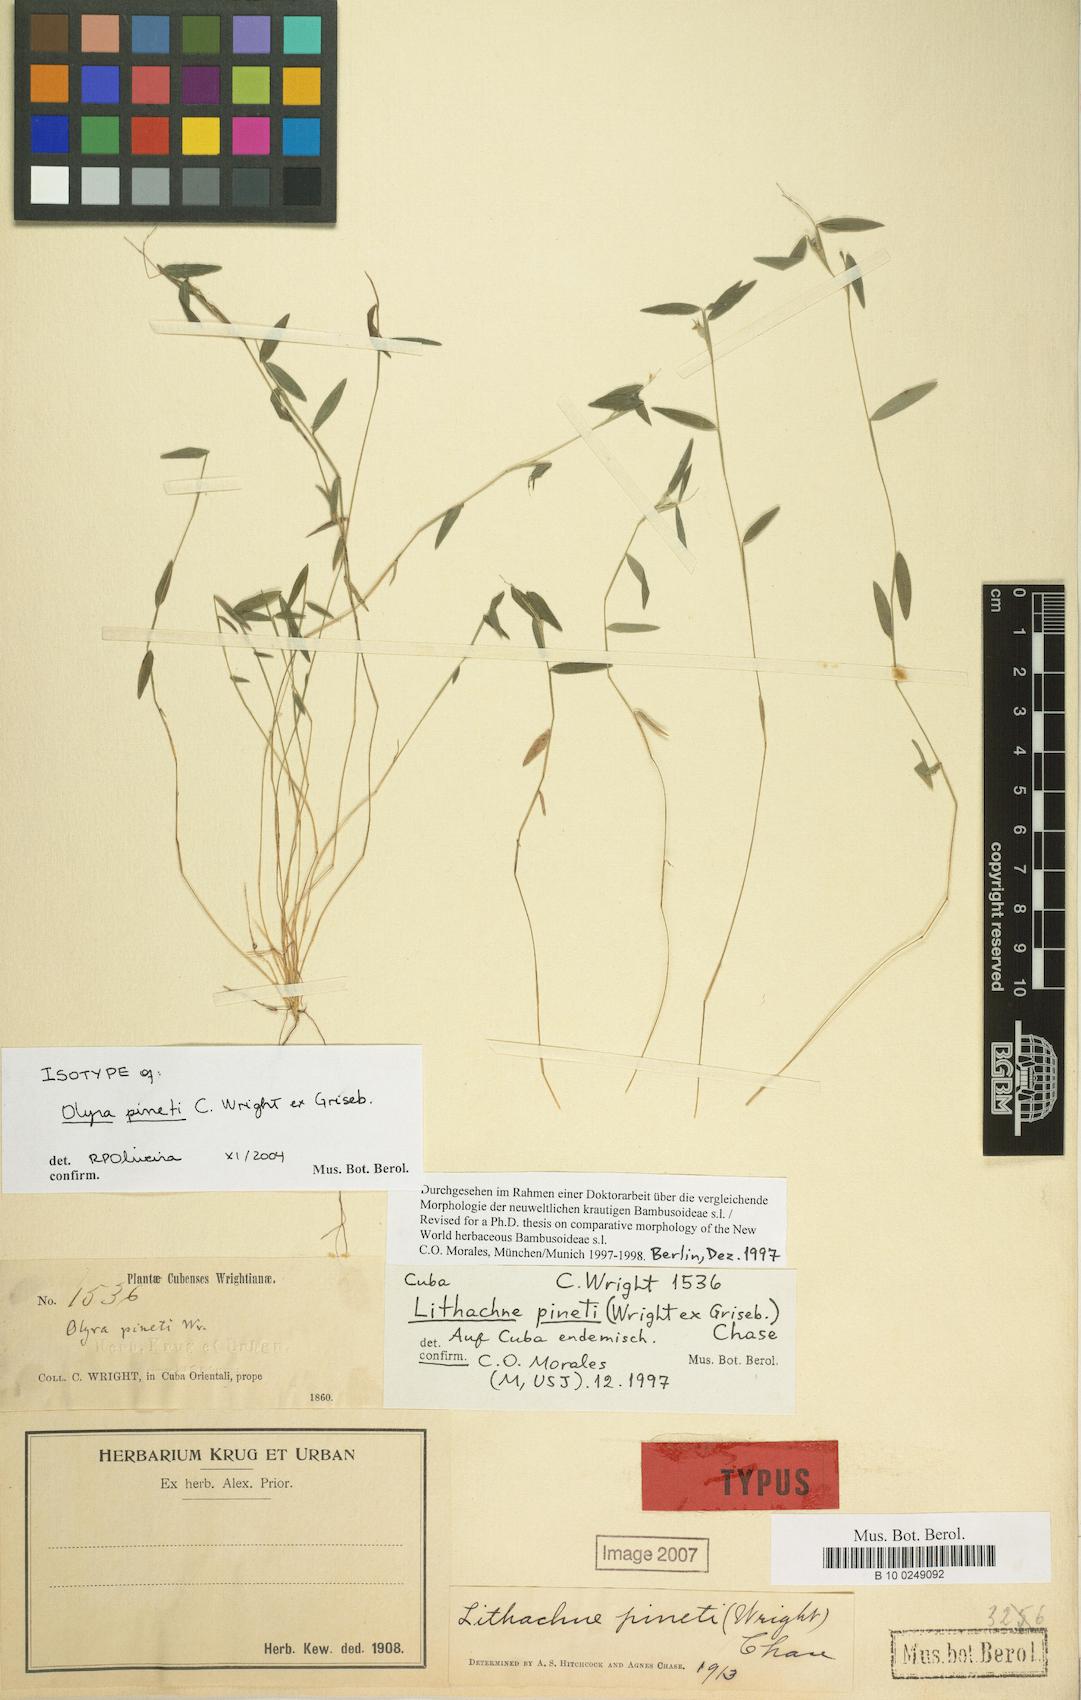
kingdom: Plantae
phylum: Tracheophyta
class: Liliopsida
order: Poales
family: Poaceae
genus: Lithachne
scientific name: Lithachne pinetii
